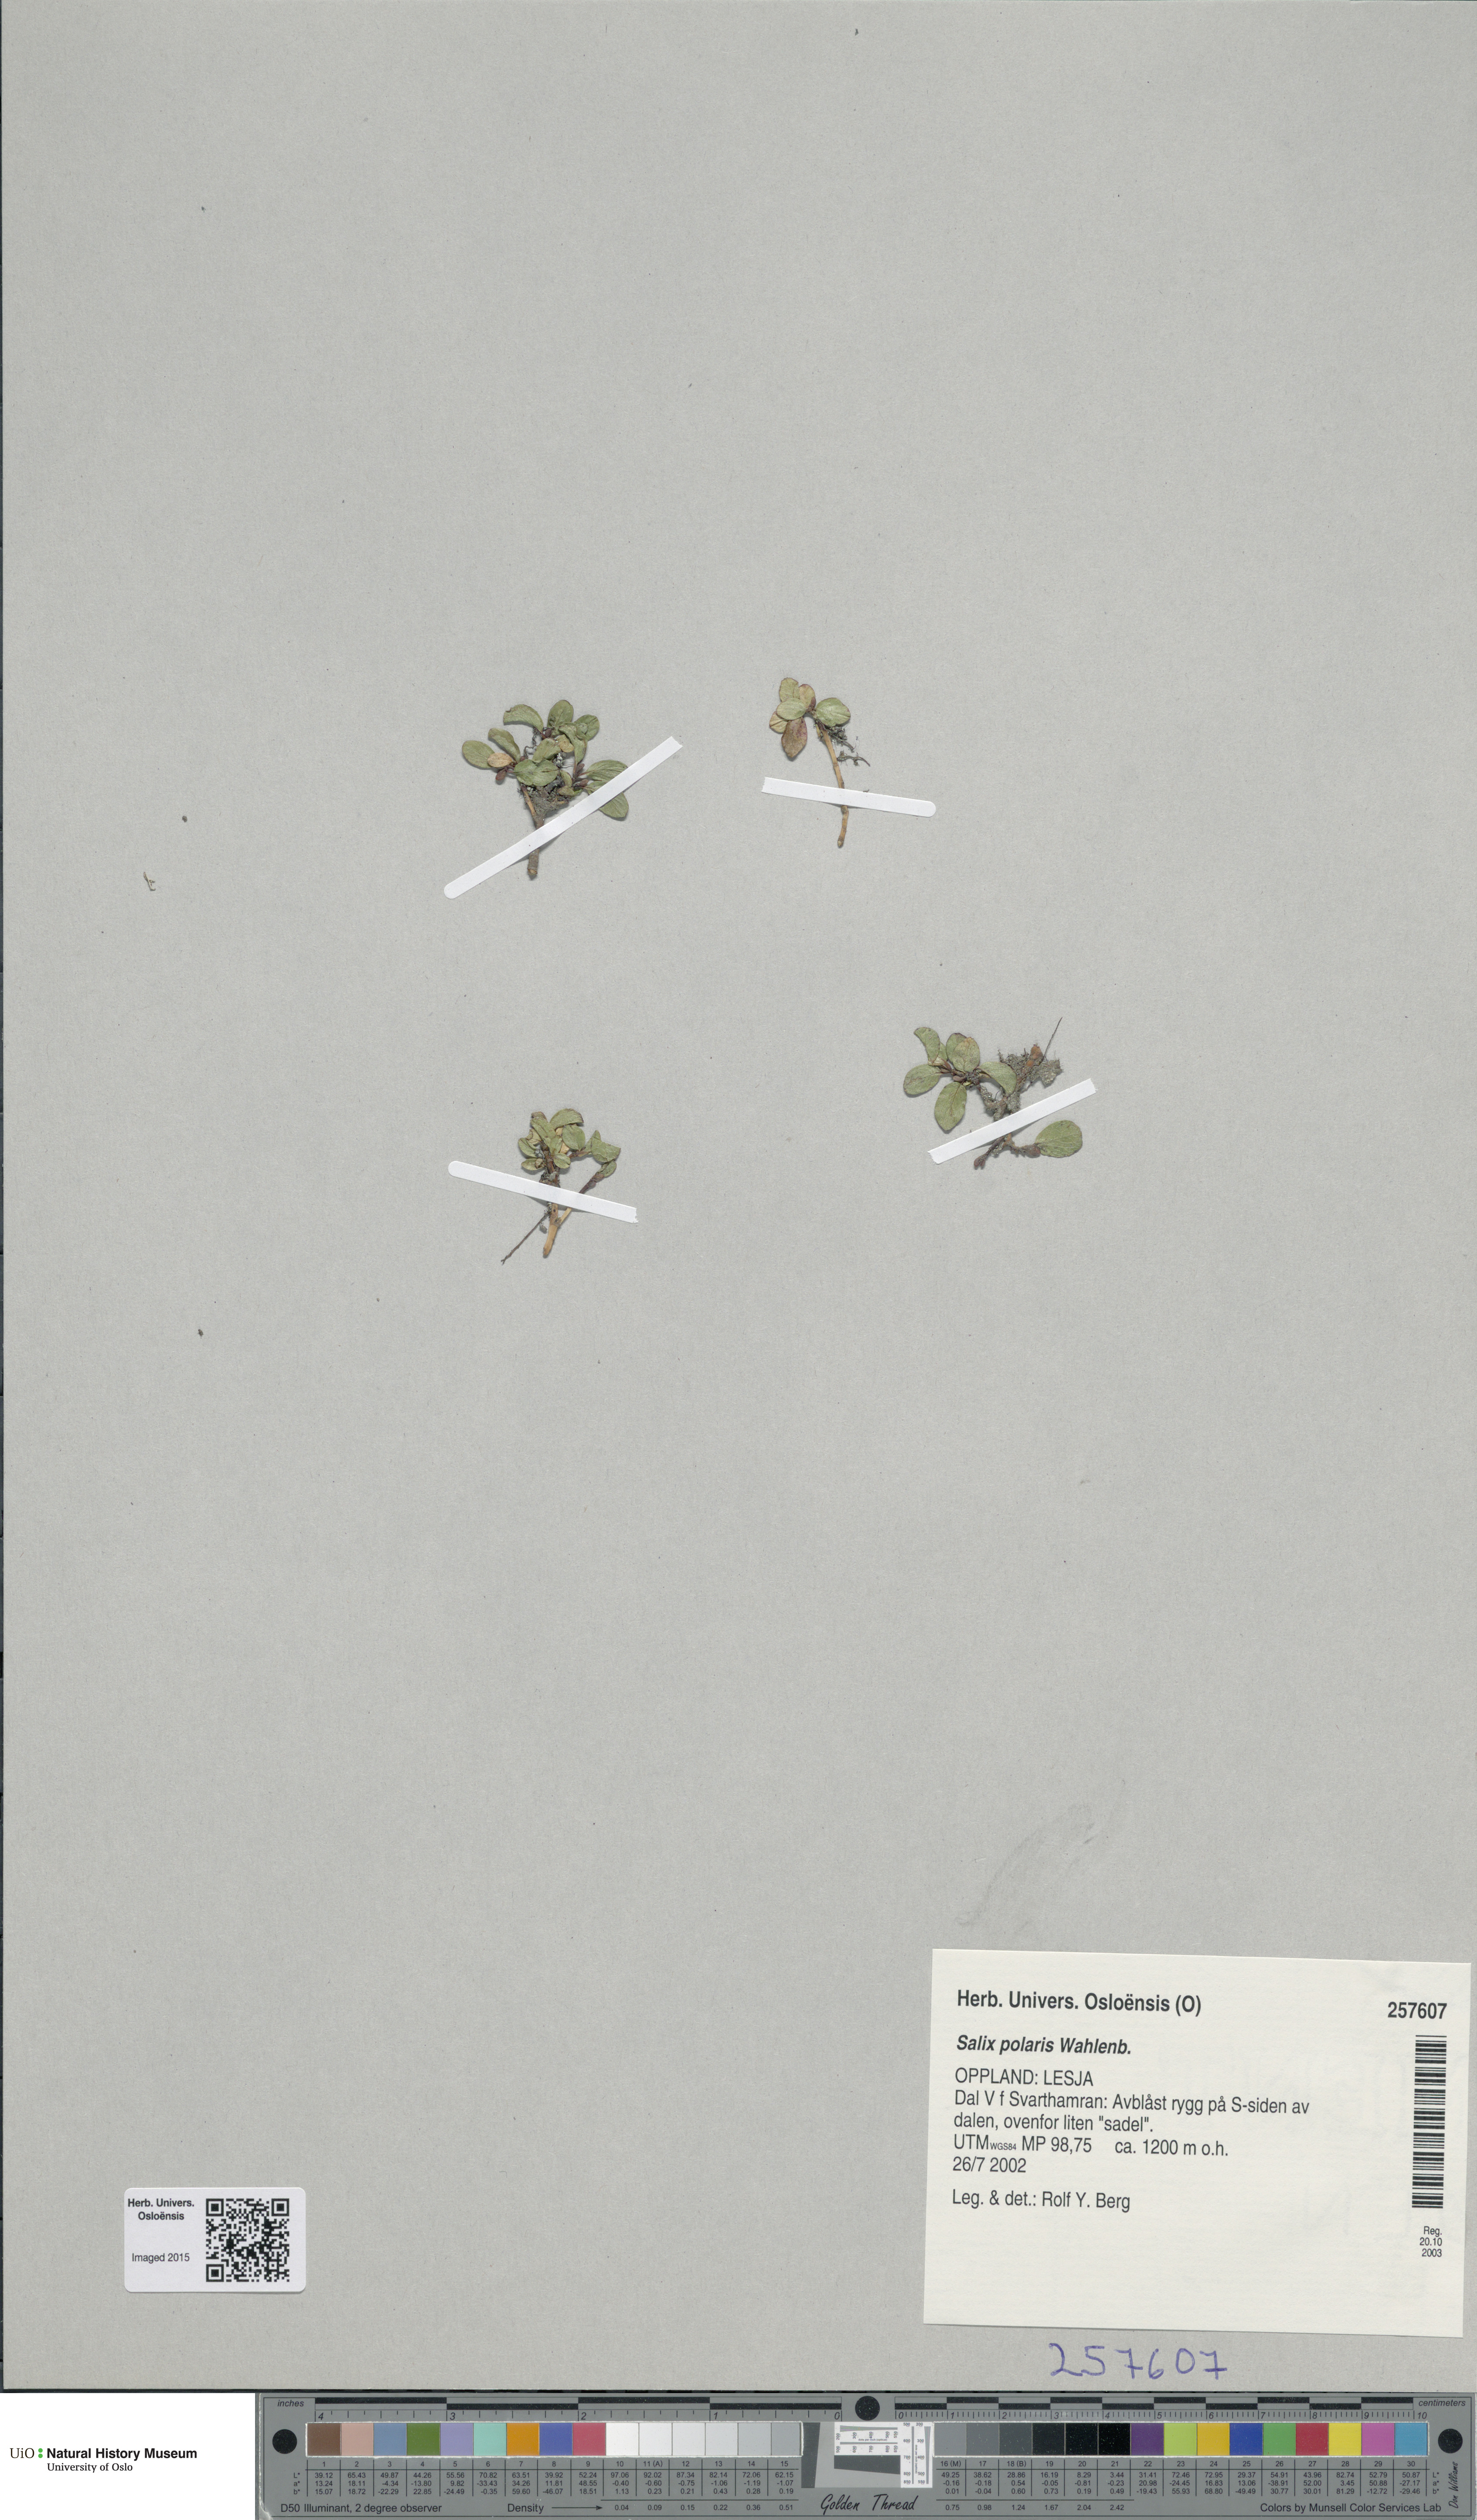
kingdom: Plantae
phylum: Tracheophyta
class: Magnoliopsida
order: Malpighiales
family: Salicaceae
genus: Salix
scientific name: Salix polaris
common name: Polar willow
